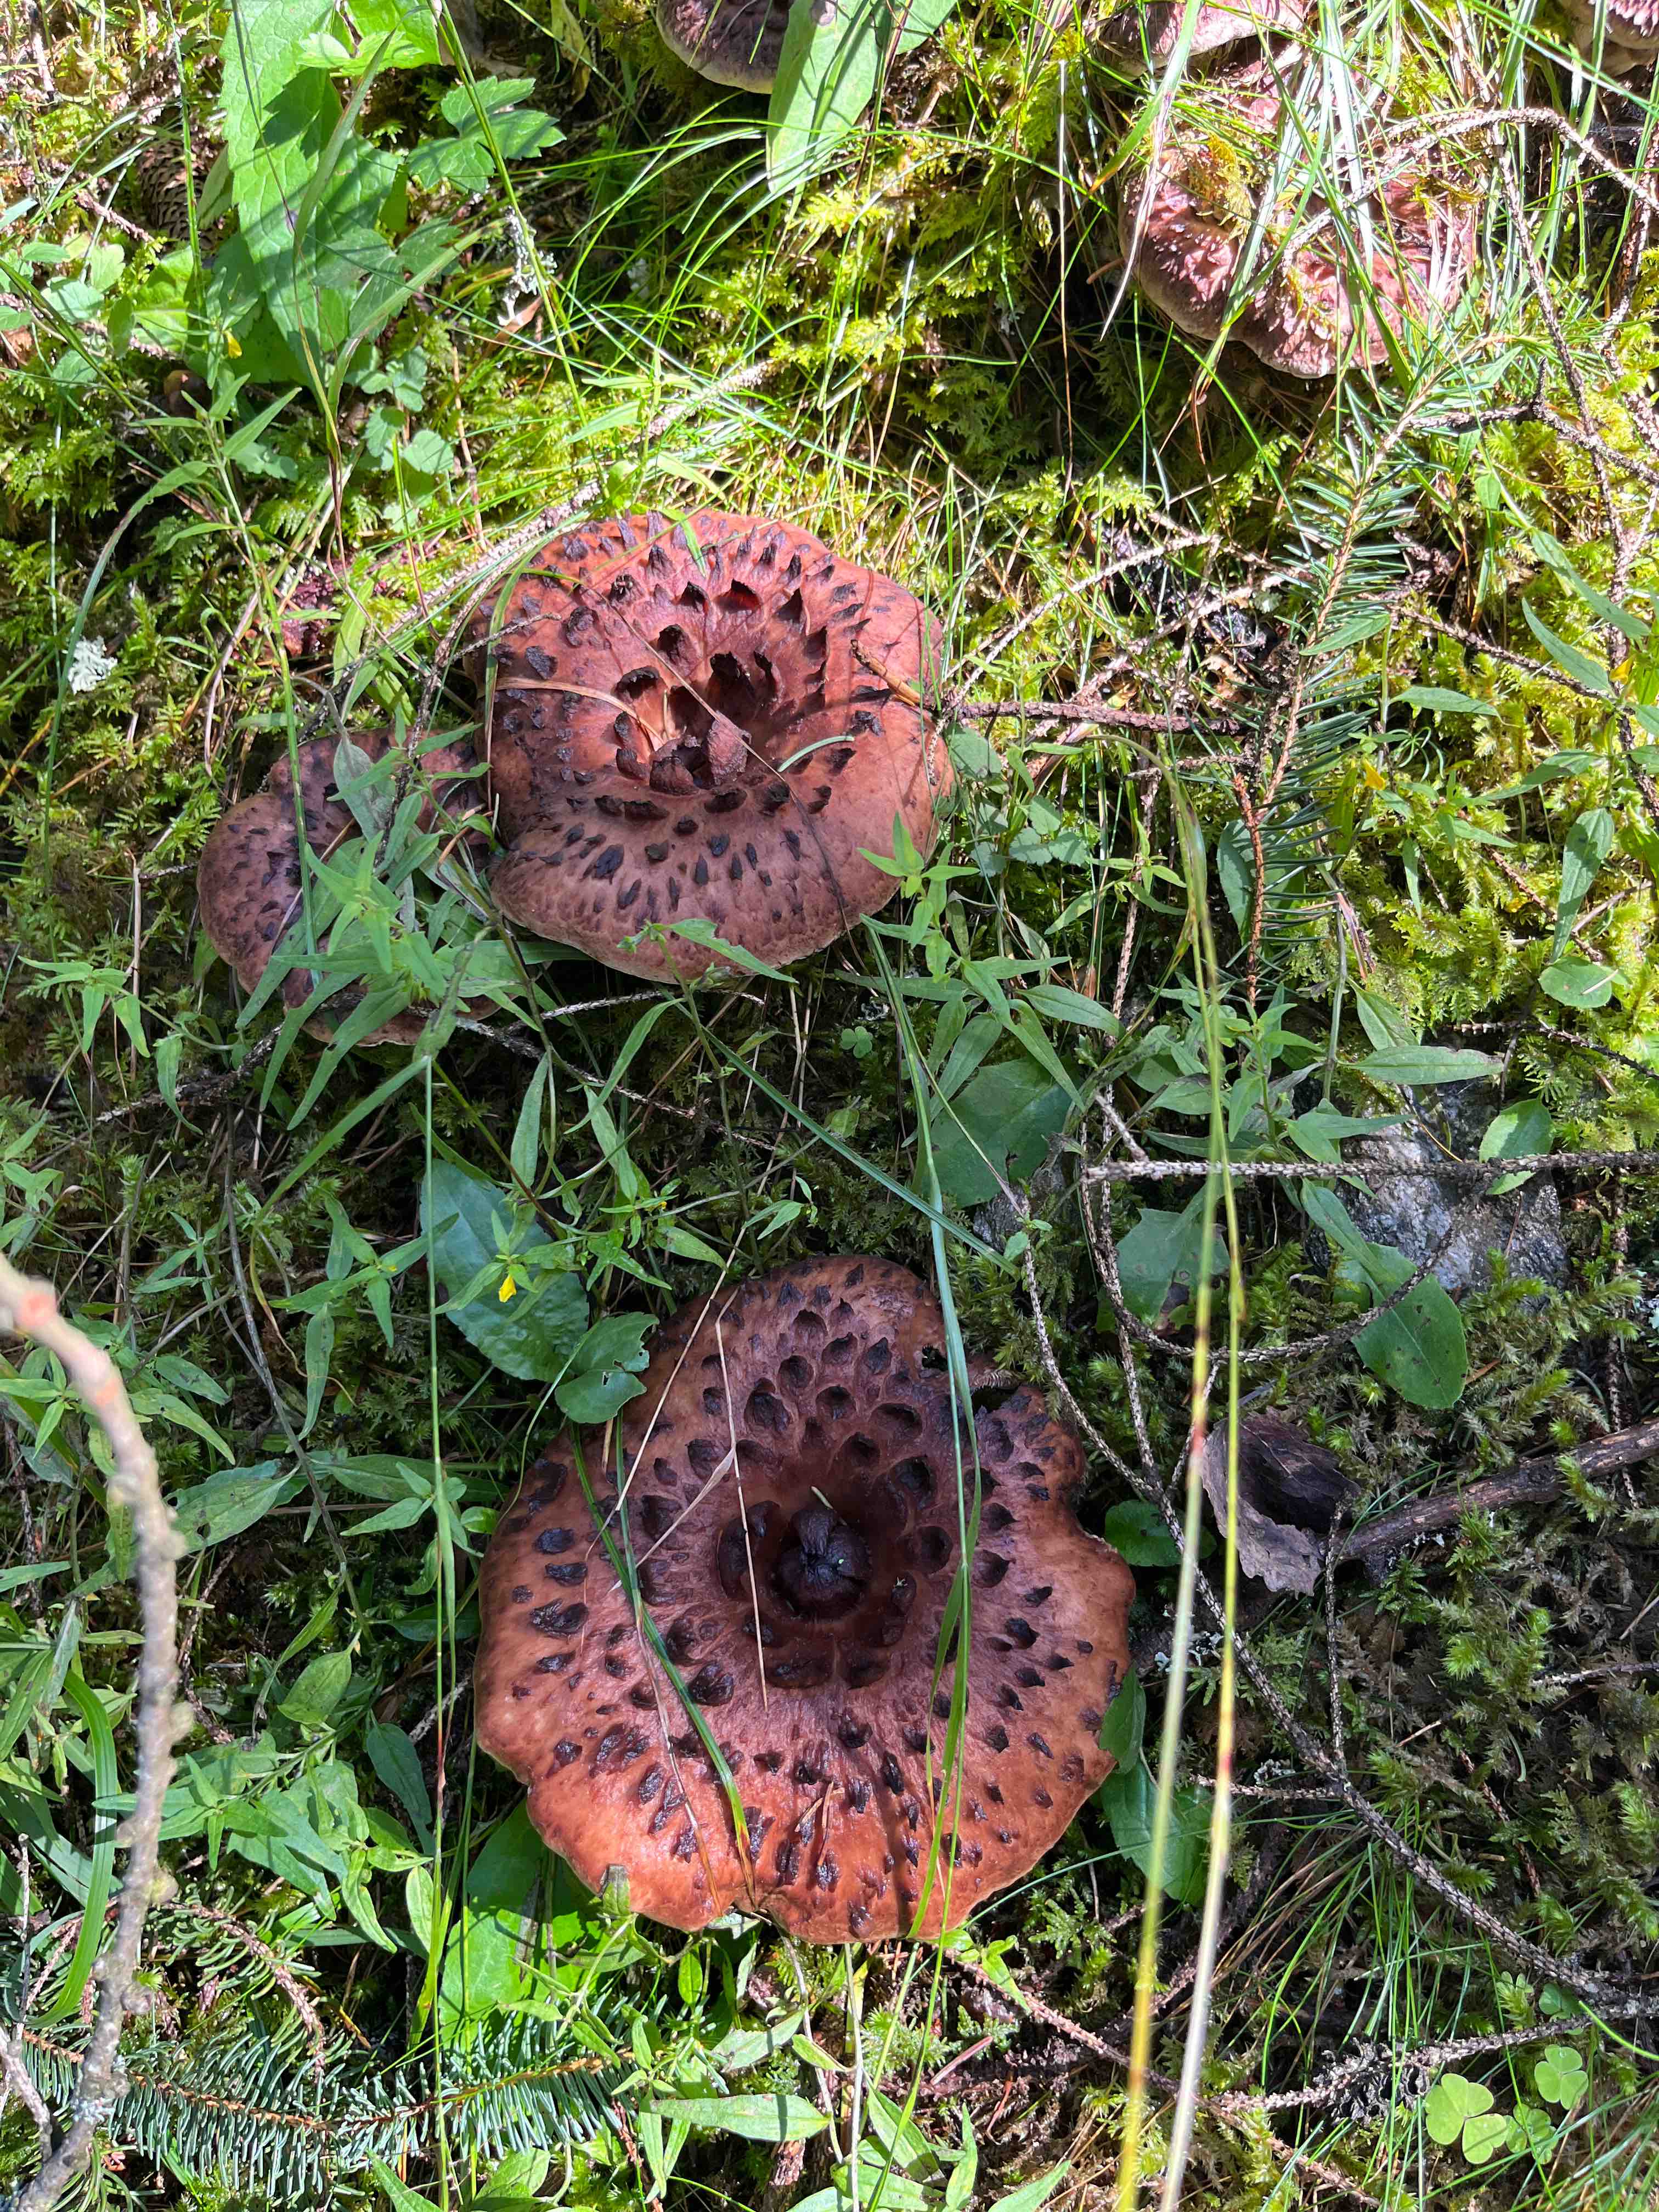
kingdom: Fungi
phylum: Basidiomycota
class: Agaricomycetes
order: Thelephorales
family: Bankeraceae
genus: Sarcodon
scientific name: Sarcodon imbricatus
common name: skællet kødpigsvamp
